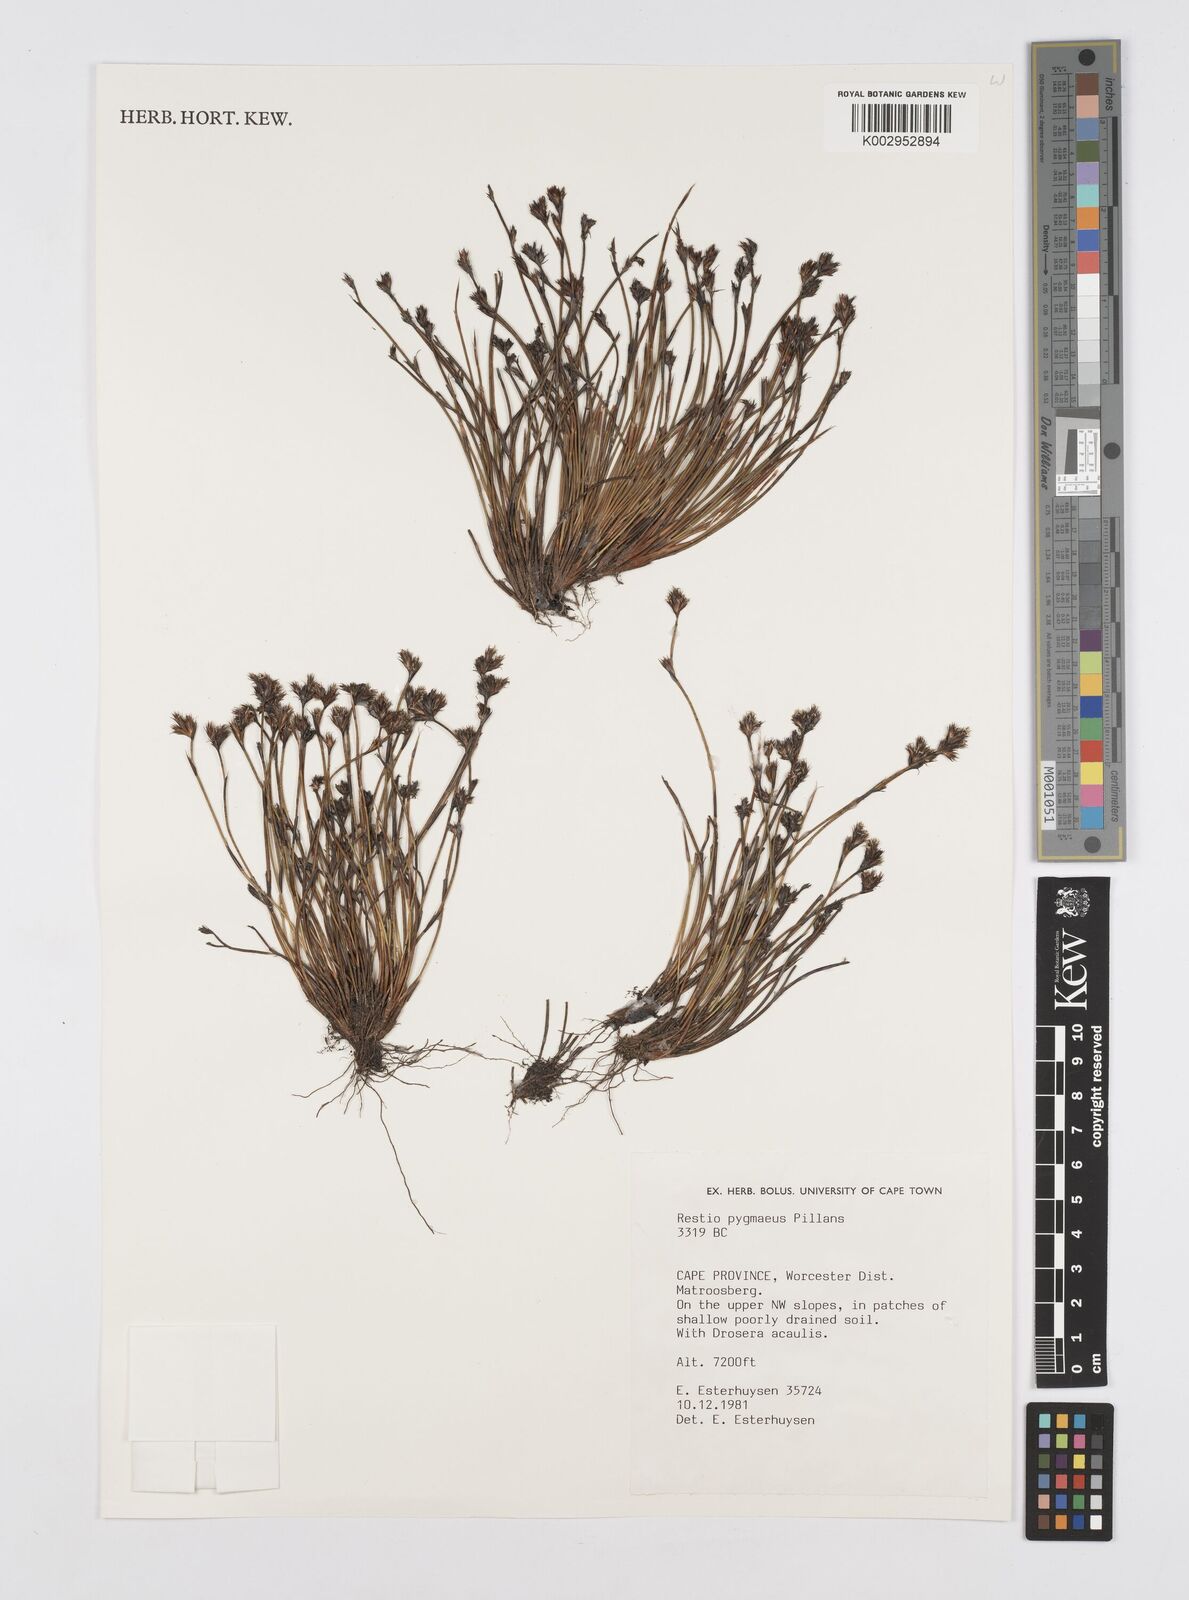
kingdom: Plantae
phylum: Tracheophyta
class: Liliopsida
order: Poales
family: Restionaceae
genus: Restio
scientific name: Restio pygmaeus
